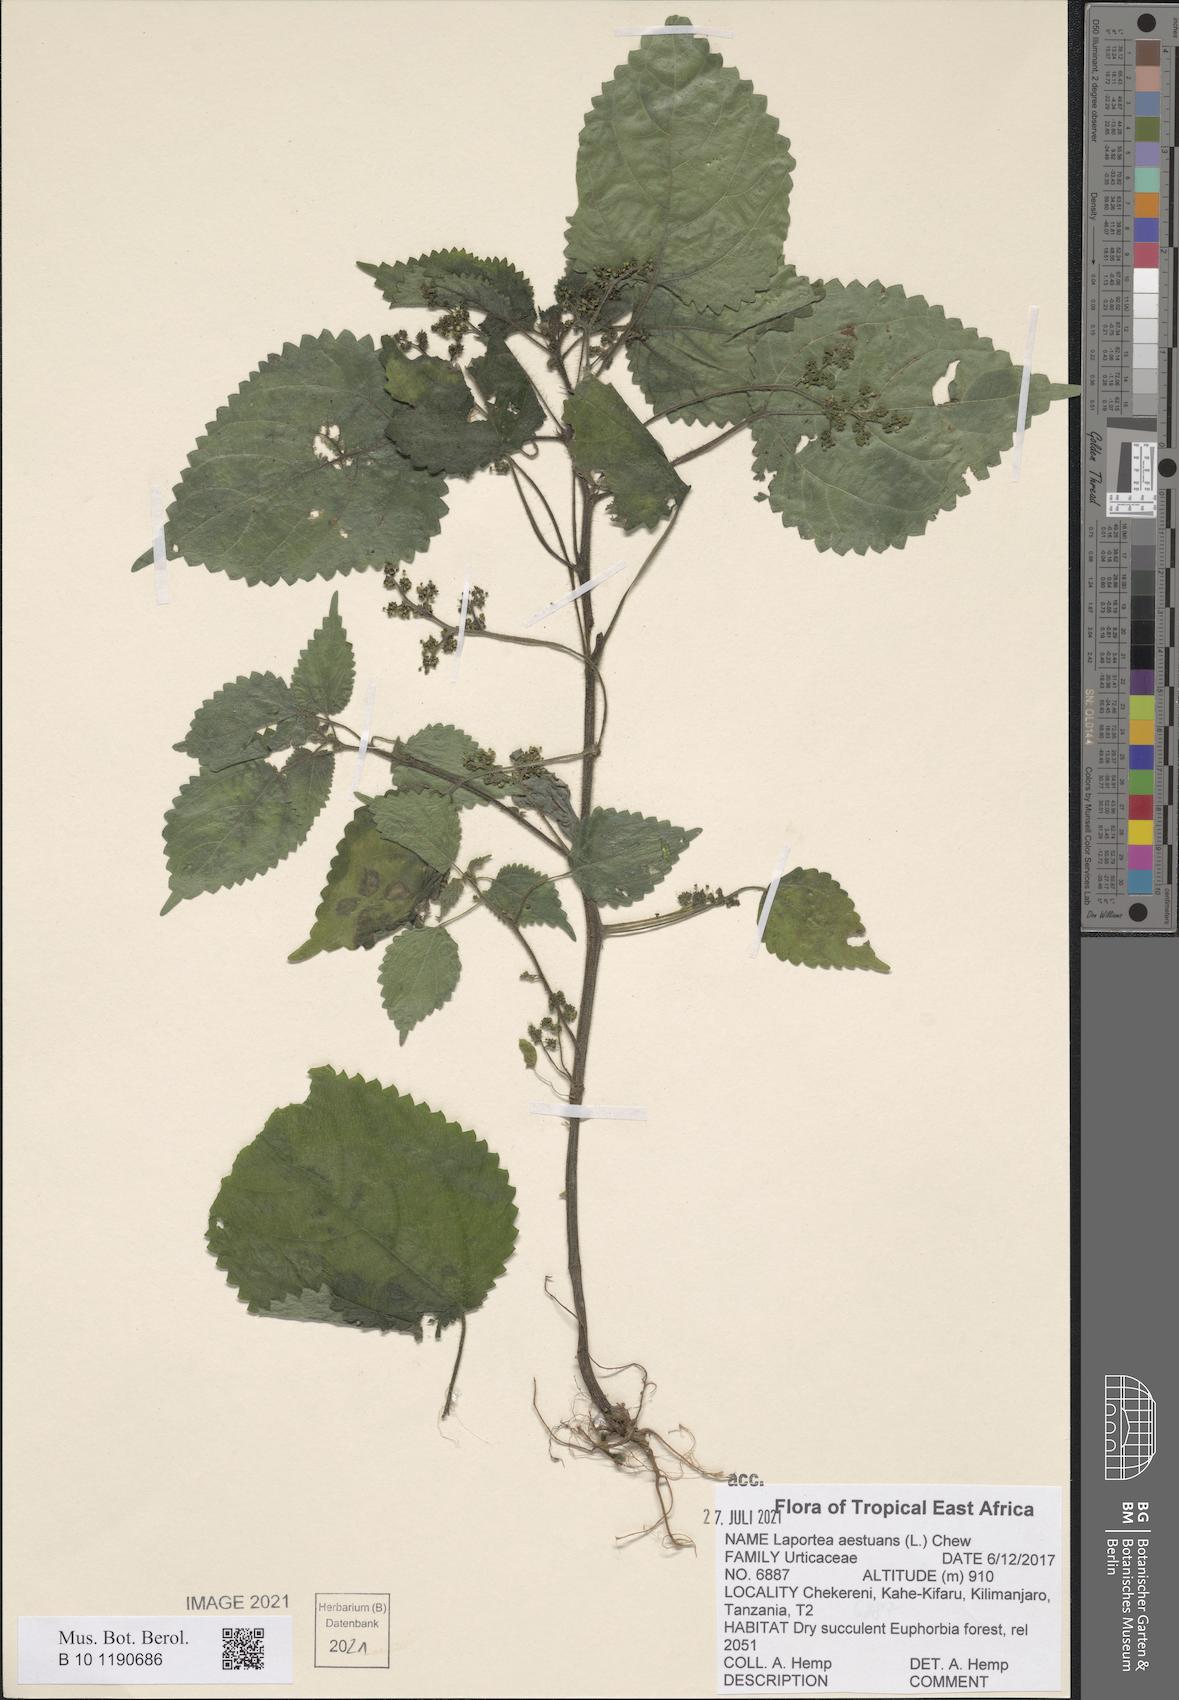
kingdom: Plantae
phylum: Tracheophyta
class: Magnoliopsida
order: Rosales
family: Urticaceae
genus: Laportea
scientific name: Laportea aestuans
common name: West indian woodnettle
